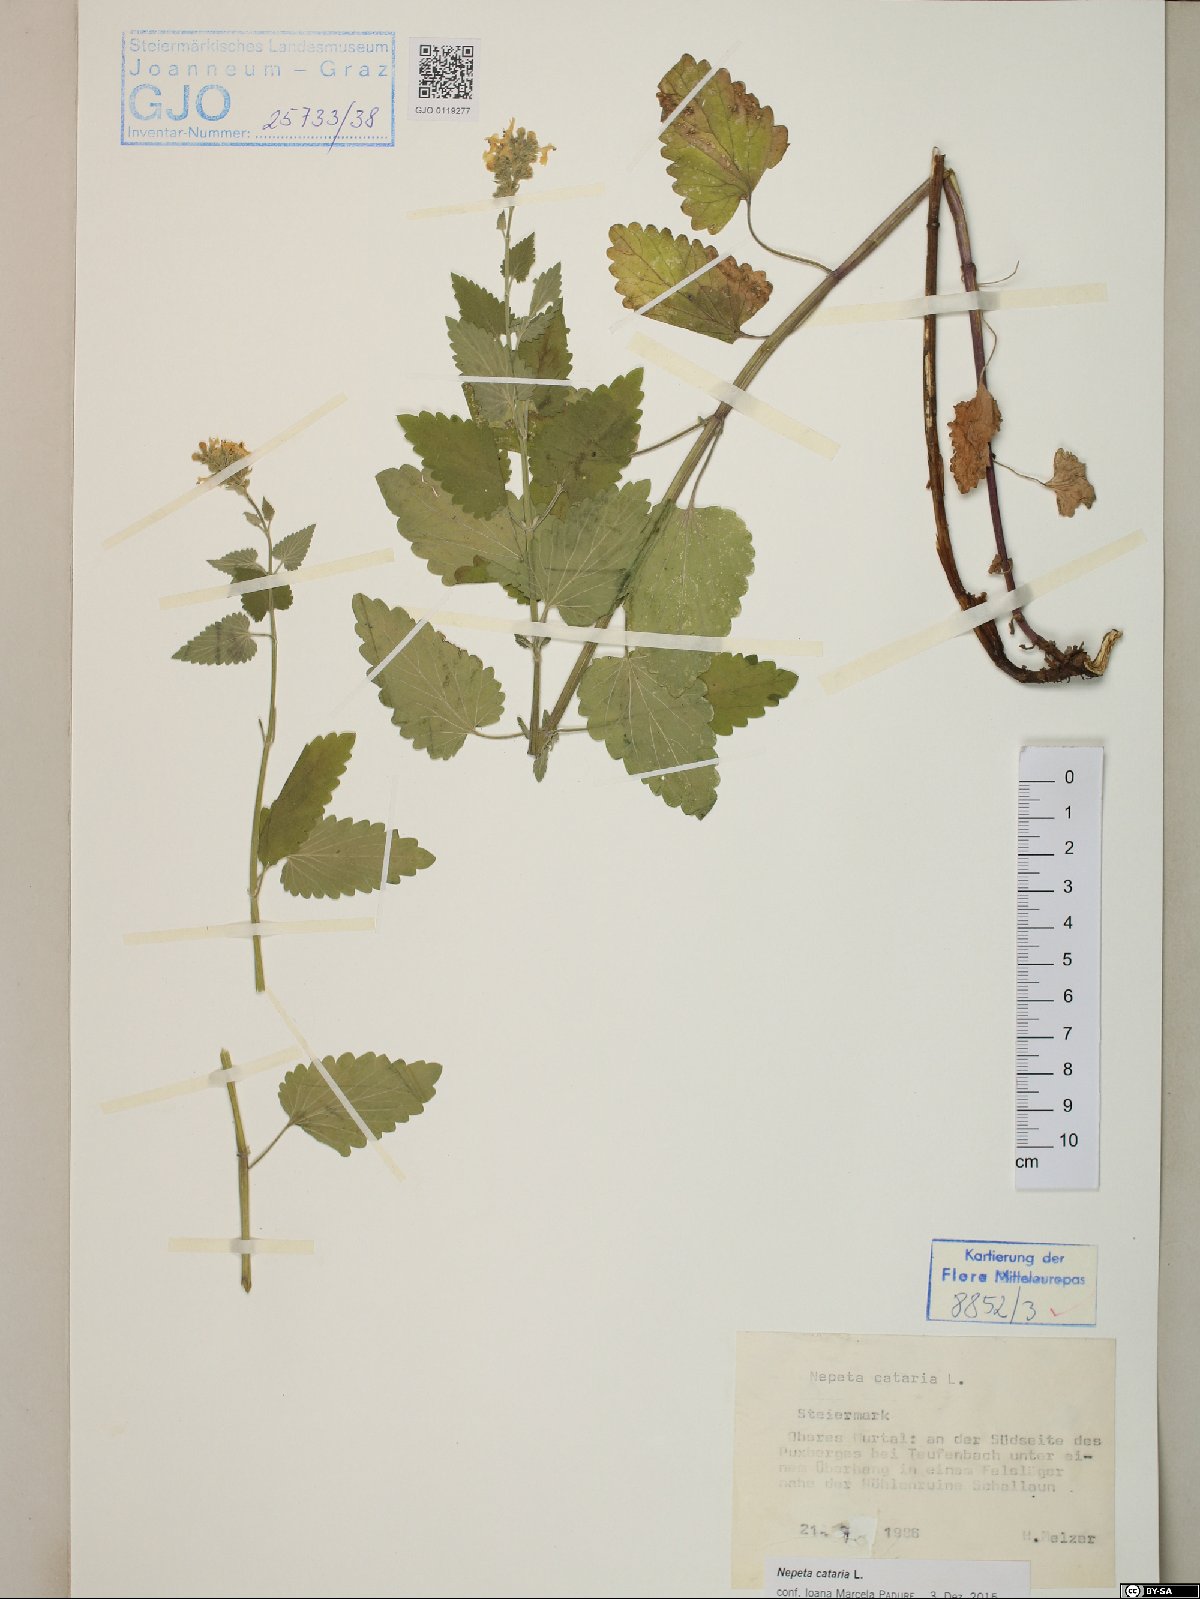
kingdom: Plantae
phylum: Tracheophyta
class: Magnoliopsida
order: Lamiales
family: Lamiaceae
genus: Nepeta
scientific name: Nepeta cataria
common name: Catnip
